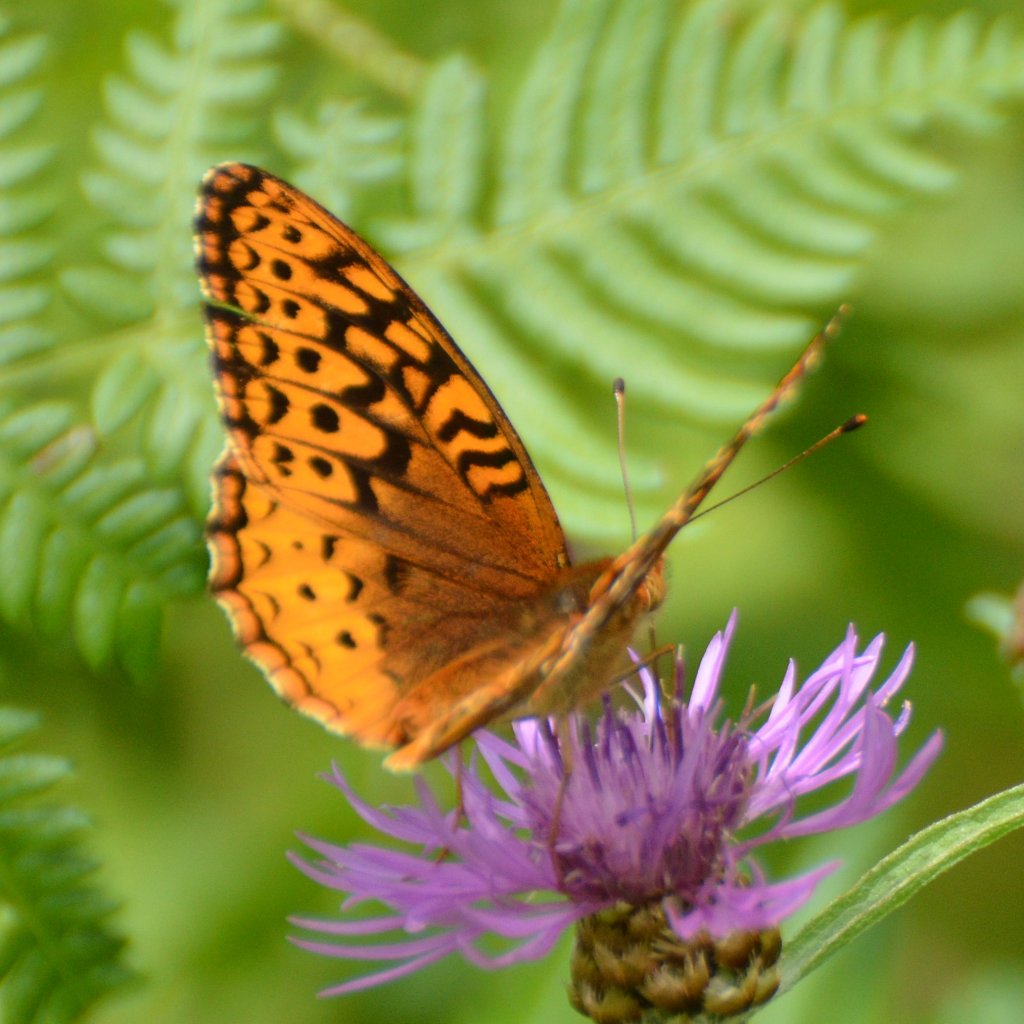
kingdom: Animalia
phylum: Arthropoda
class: Insecta
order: Lepidoptera
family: Nymphalidae
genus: Speyeria
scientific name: Speyeria cybele
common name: Great Spangled Fritillary
